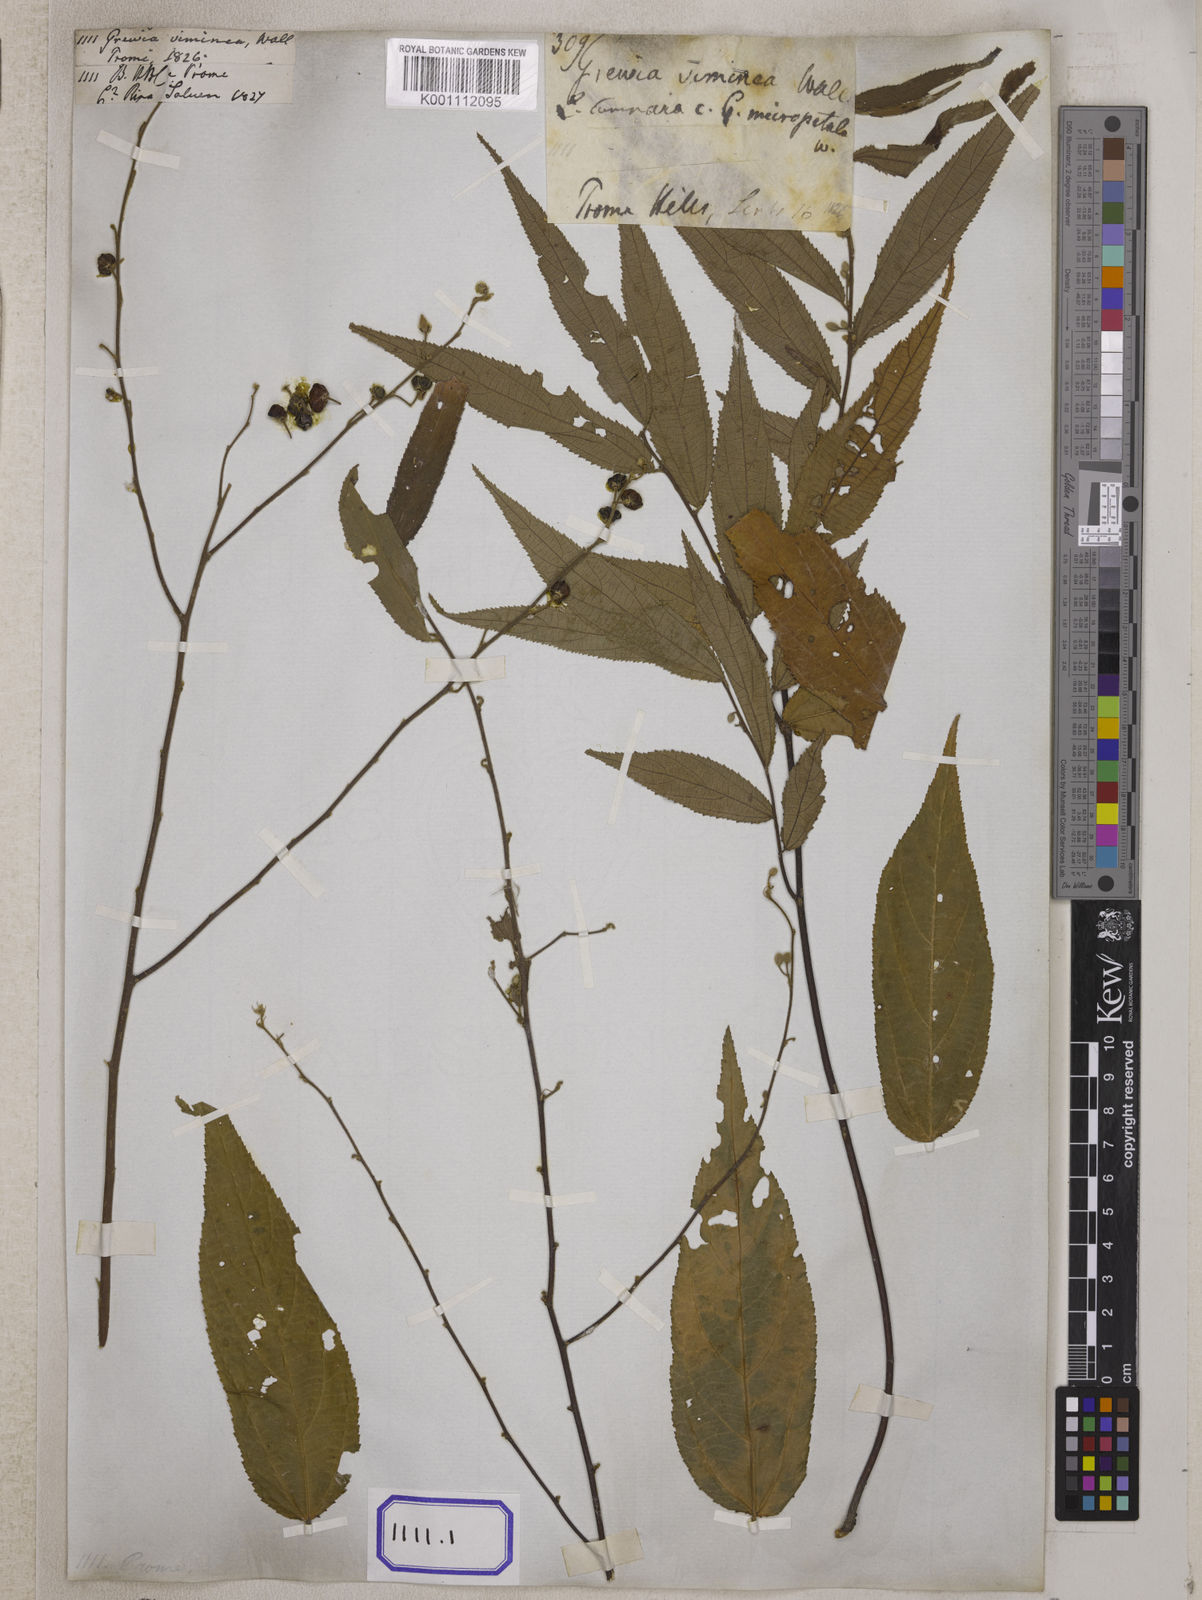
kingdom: Plantae
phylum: Tracheophyta
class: Magnoliopsida
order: Malvales
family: Malvaceae
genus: Grewia
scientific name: Grewia
